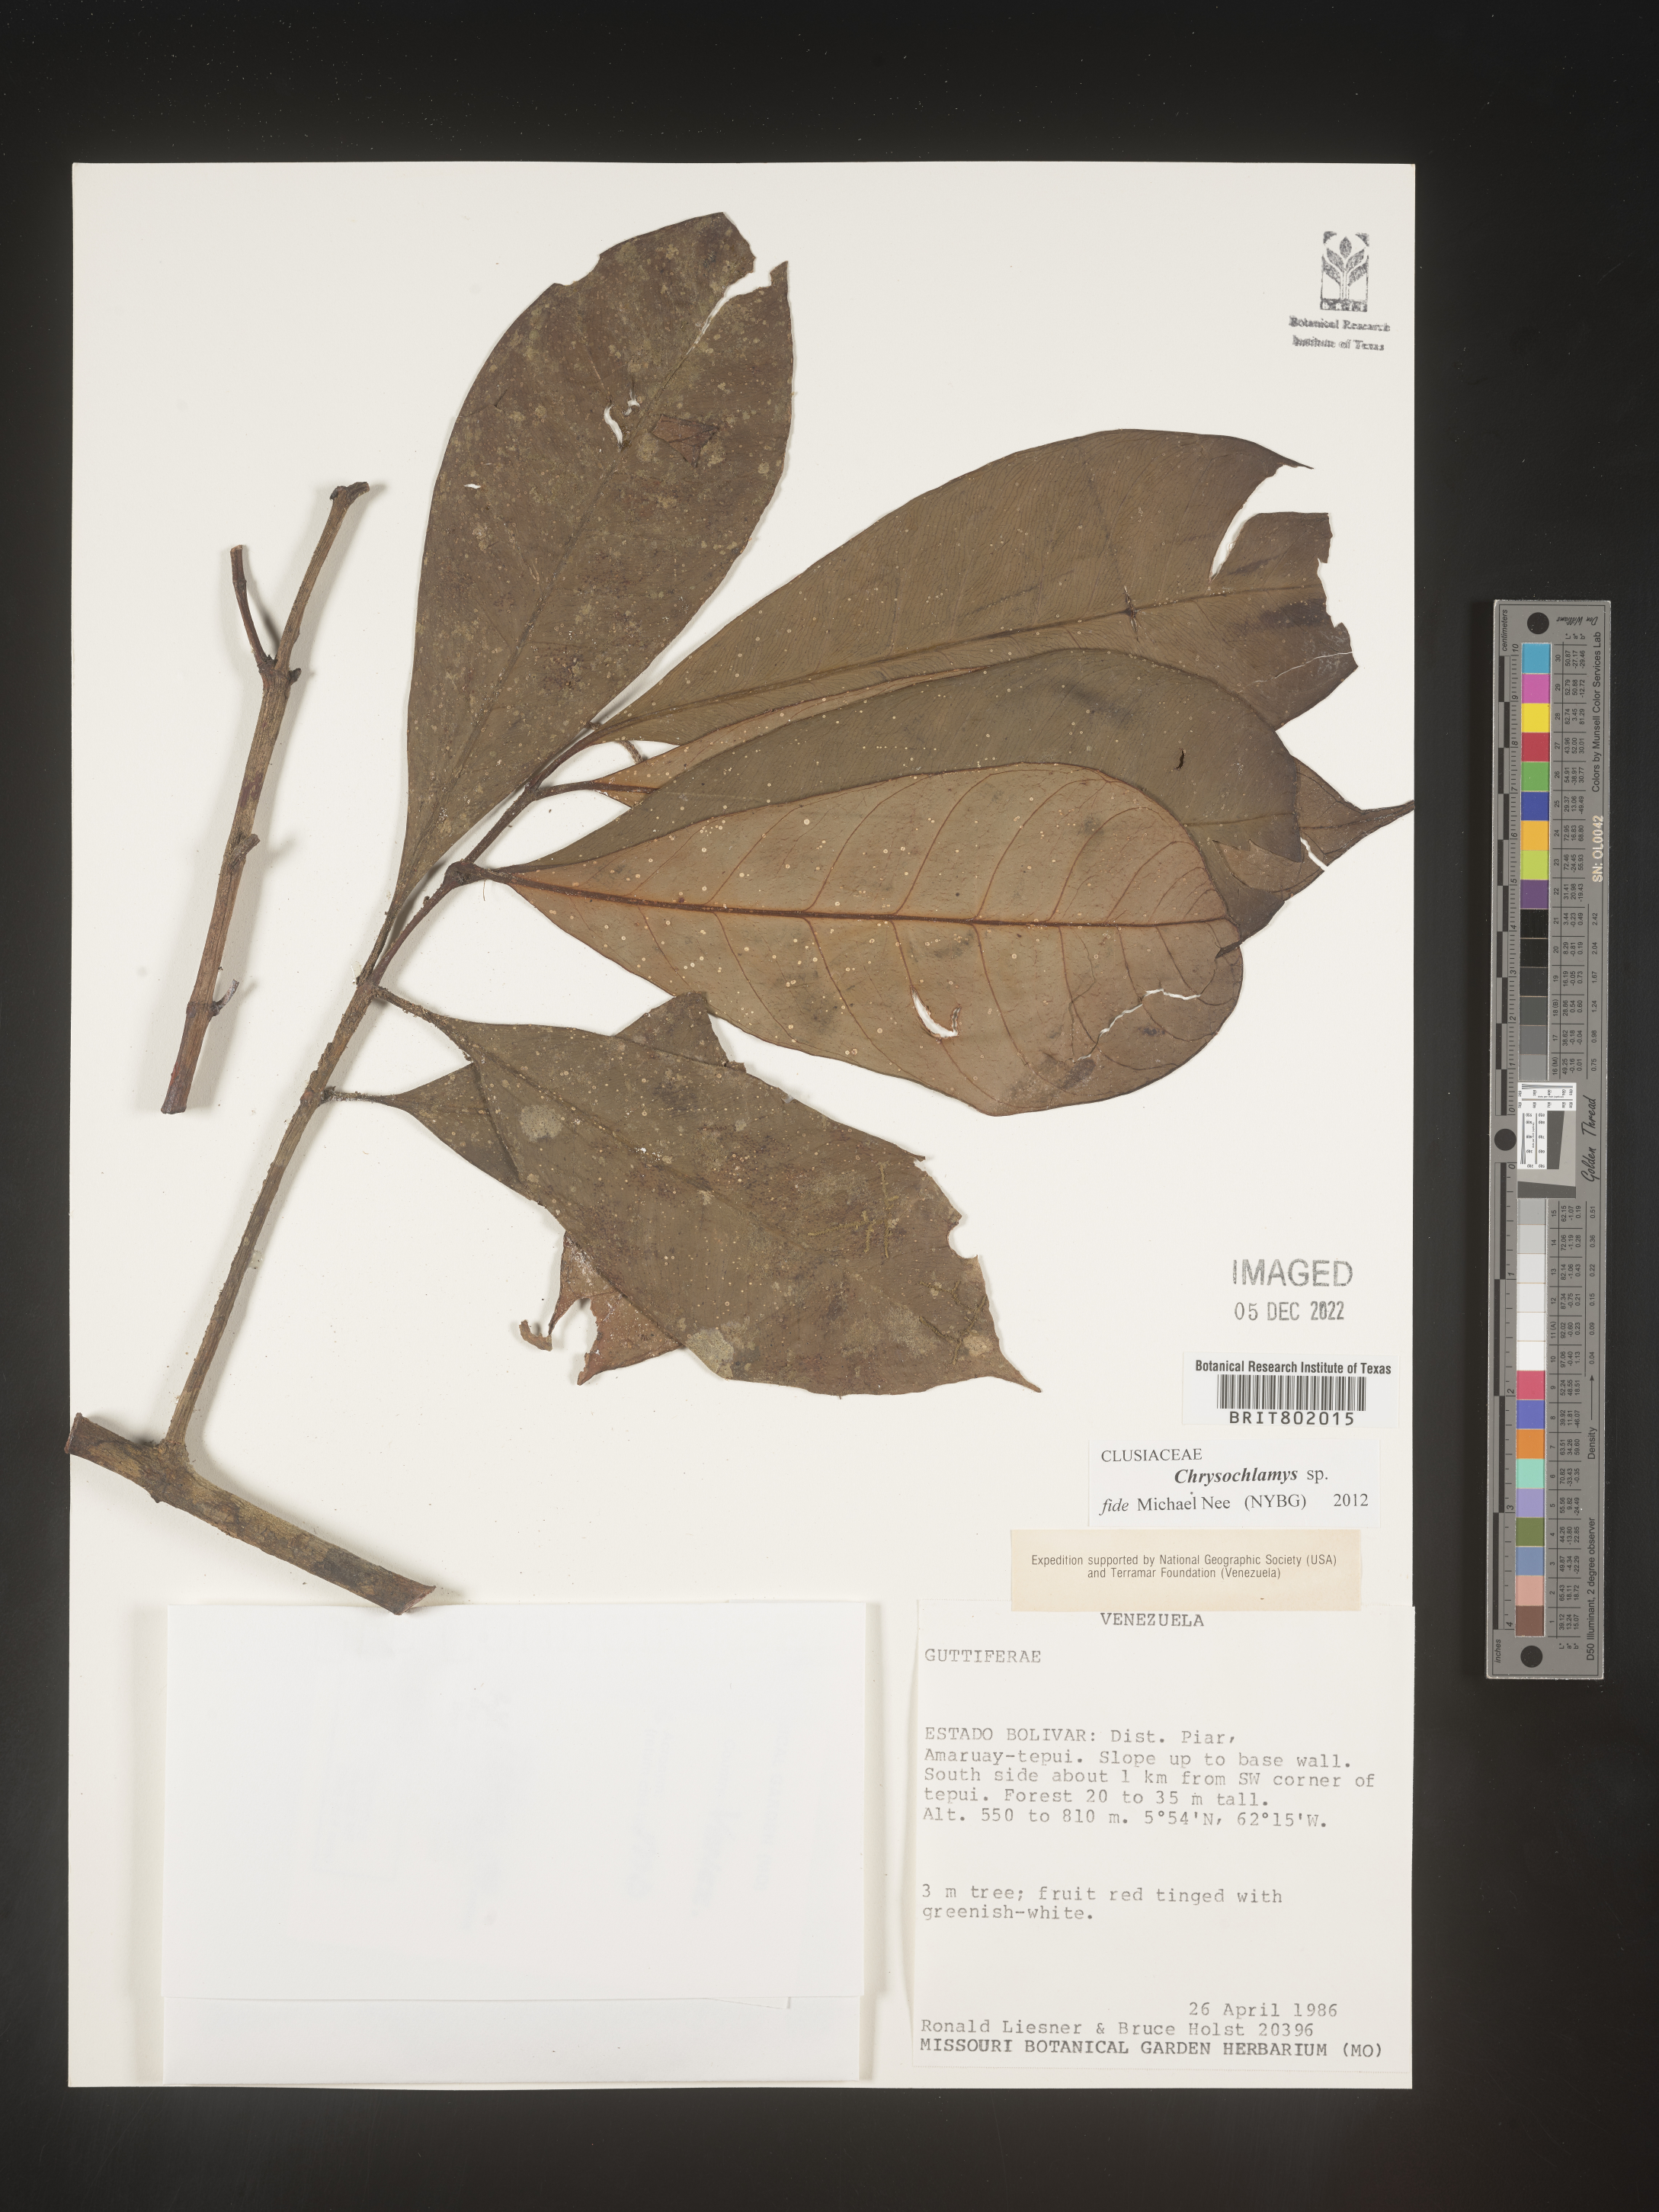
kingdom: Plantae
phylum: Tracheophyta
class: Magnoliopsida
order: Malpighiales
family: Clusiaceae
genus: Chrysochlamys
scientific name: Chrysochlamys
